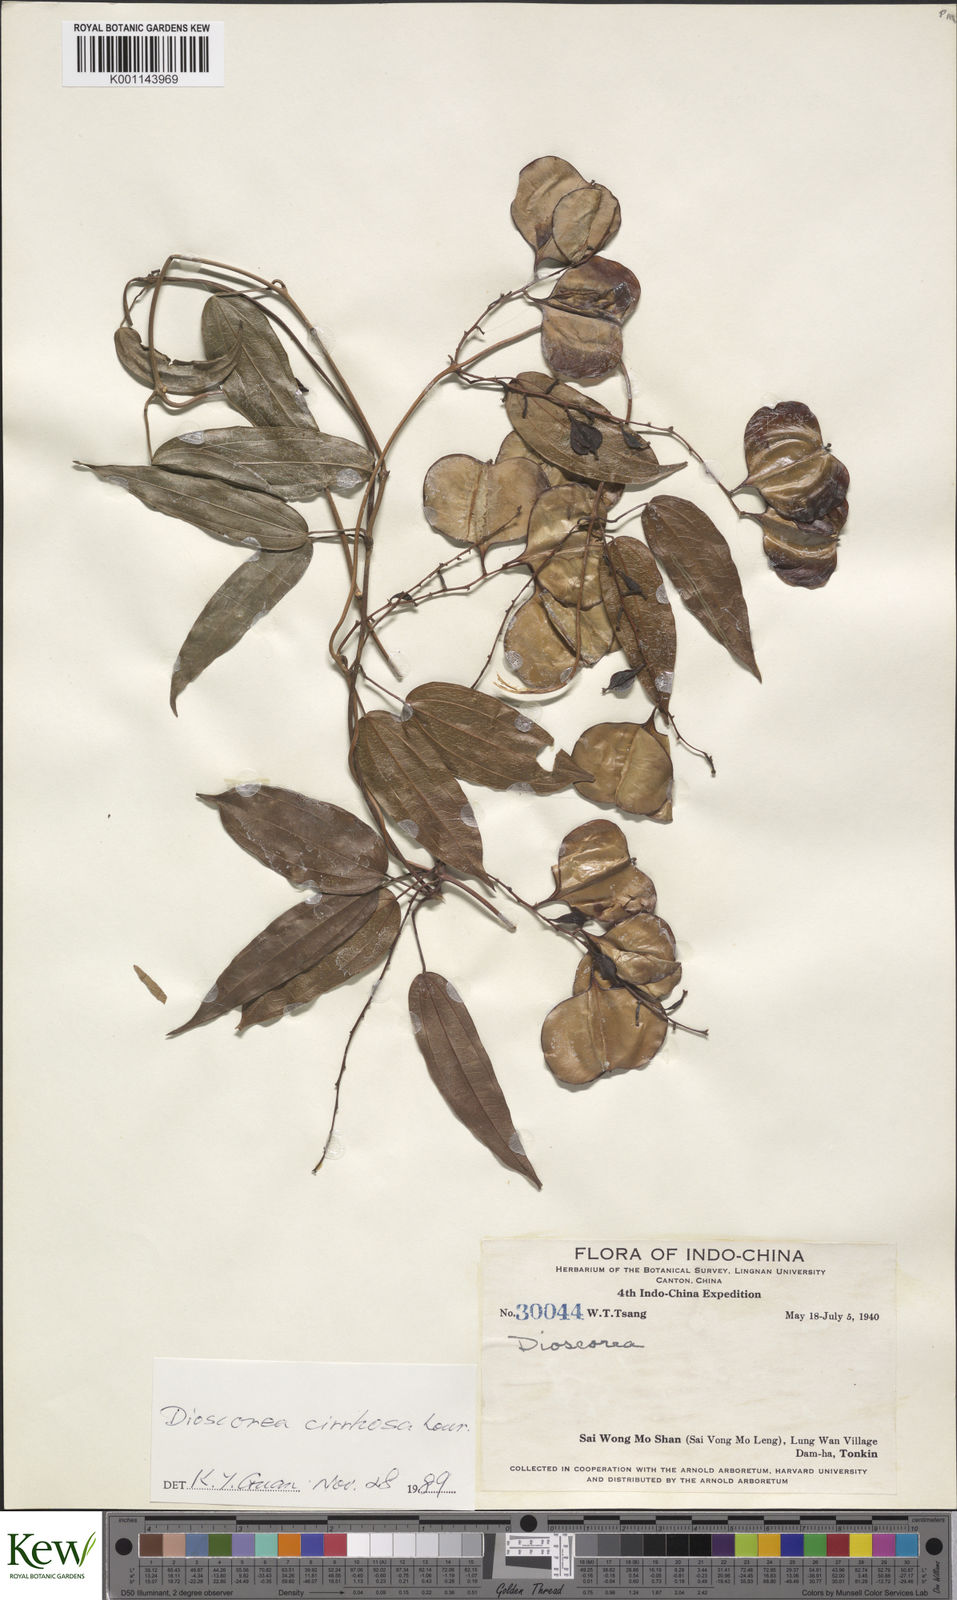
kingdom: Plantae
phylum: Tracheophyta
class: Liliopsida
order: Dioscoreales
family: Dioscoreaceae
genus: Dioscorea
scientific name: Dioscorea cirrhosa
